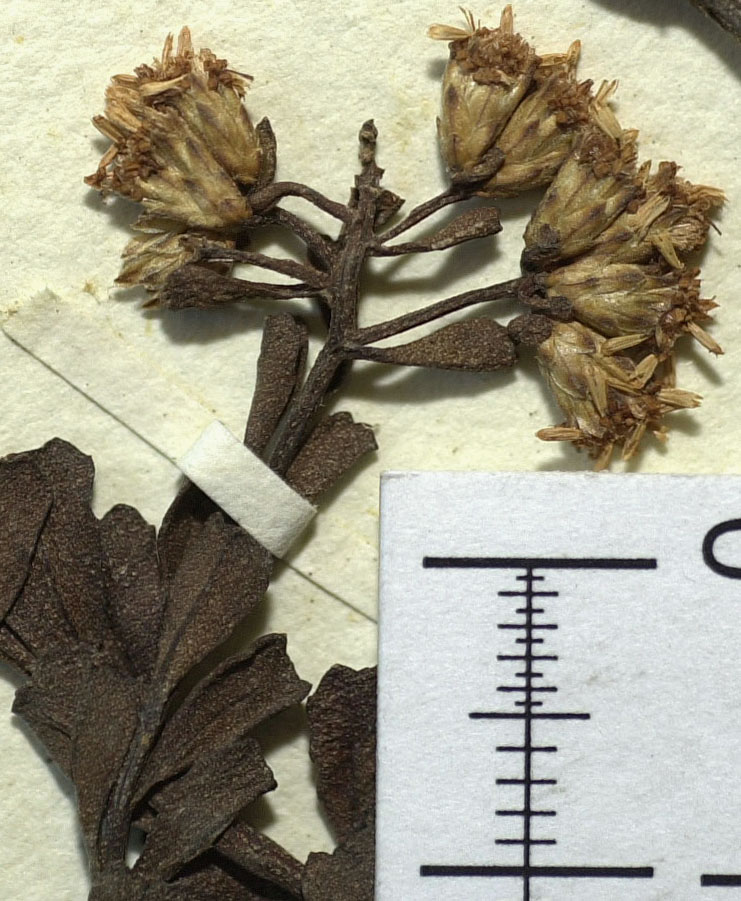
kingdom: Plantae
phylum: Tracheophyta
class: Magnoliopsida
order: Asterales
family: Asteraceae
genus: Baccharis
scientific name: Baccharis pentziifolia
